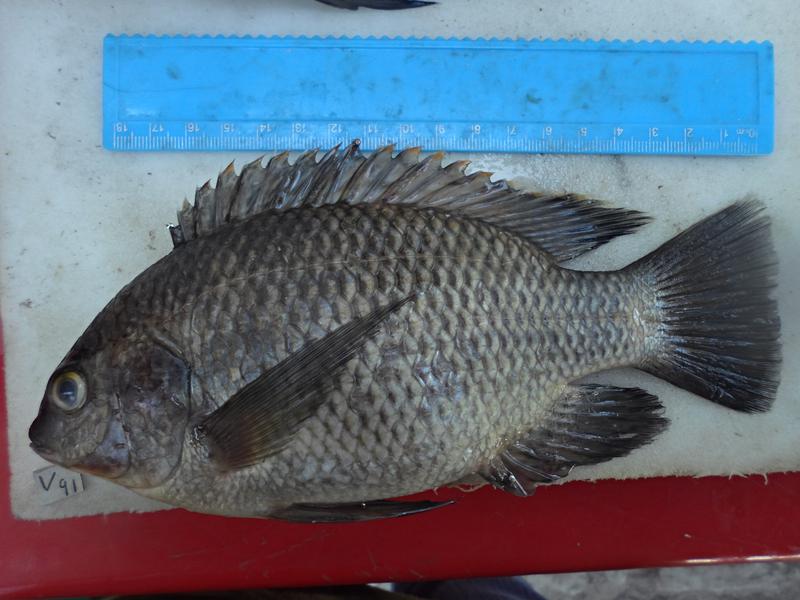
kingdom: Animalia
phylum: Chordata
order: Perciformes
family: Cichlidae
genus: Oreochromis
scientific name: Oreochromis variabilis
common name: Victoria tilapia
